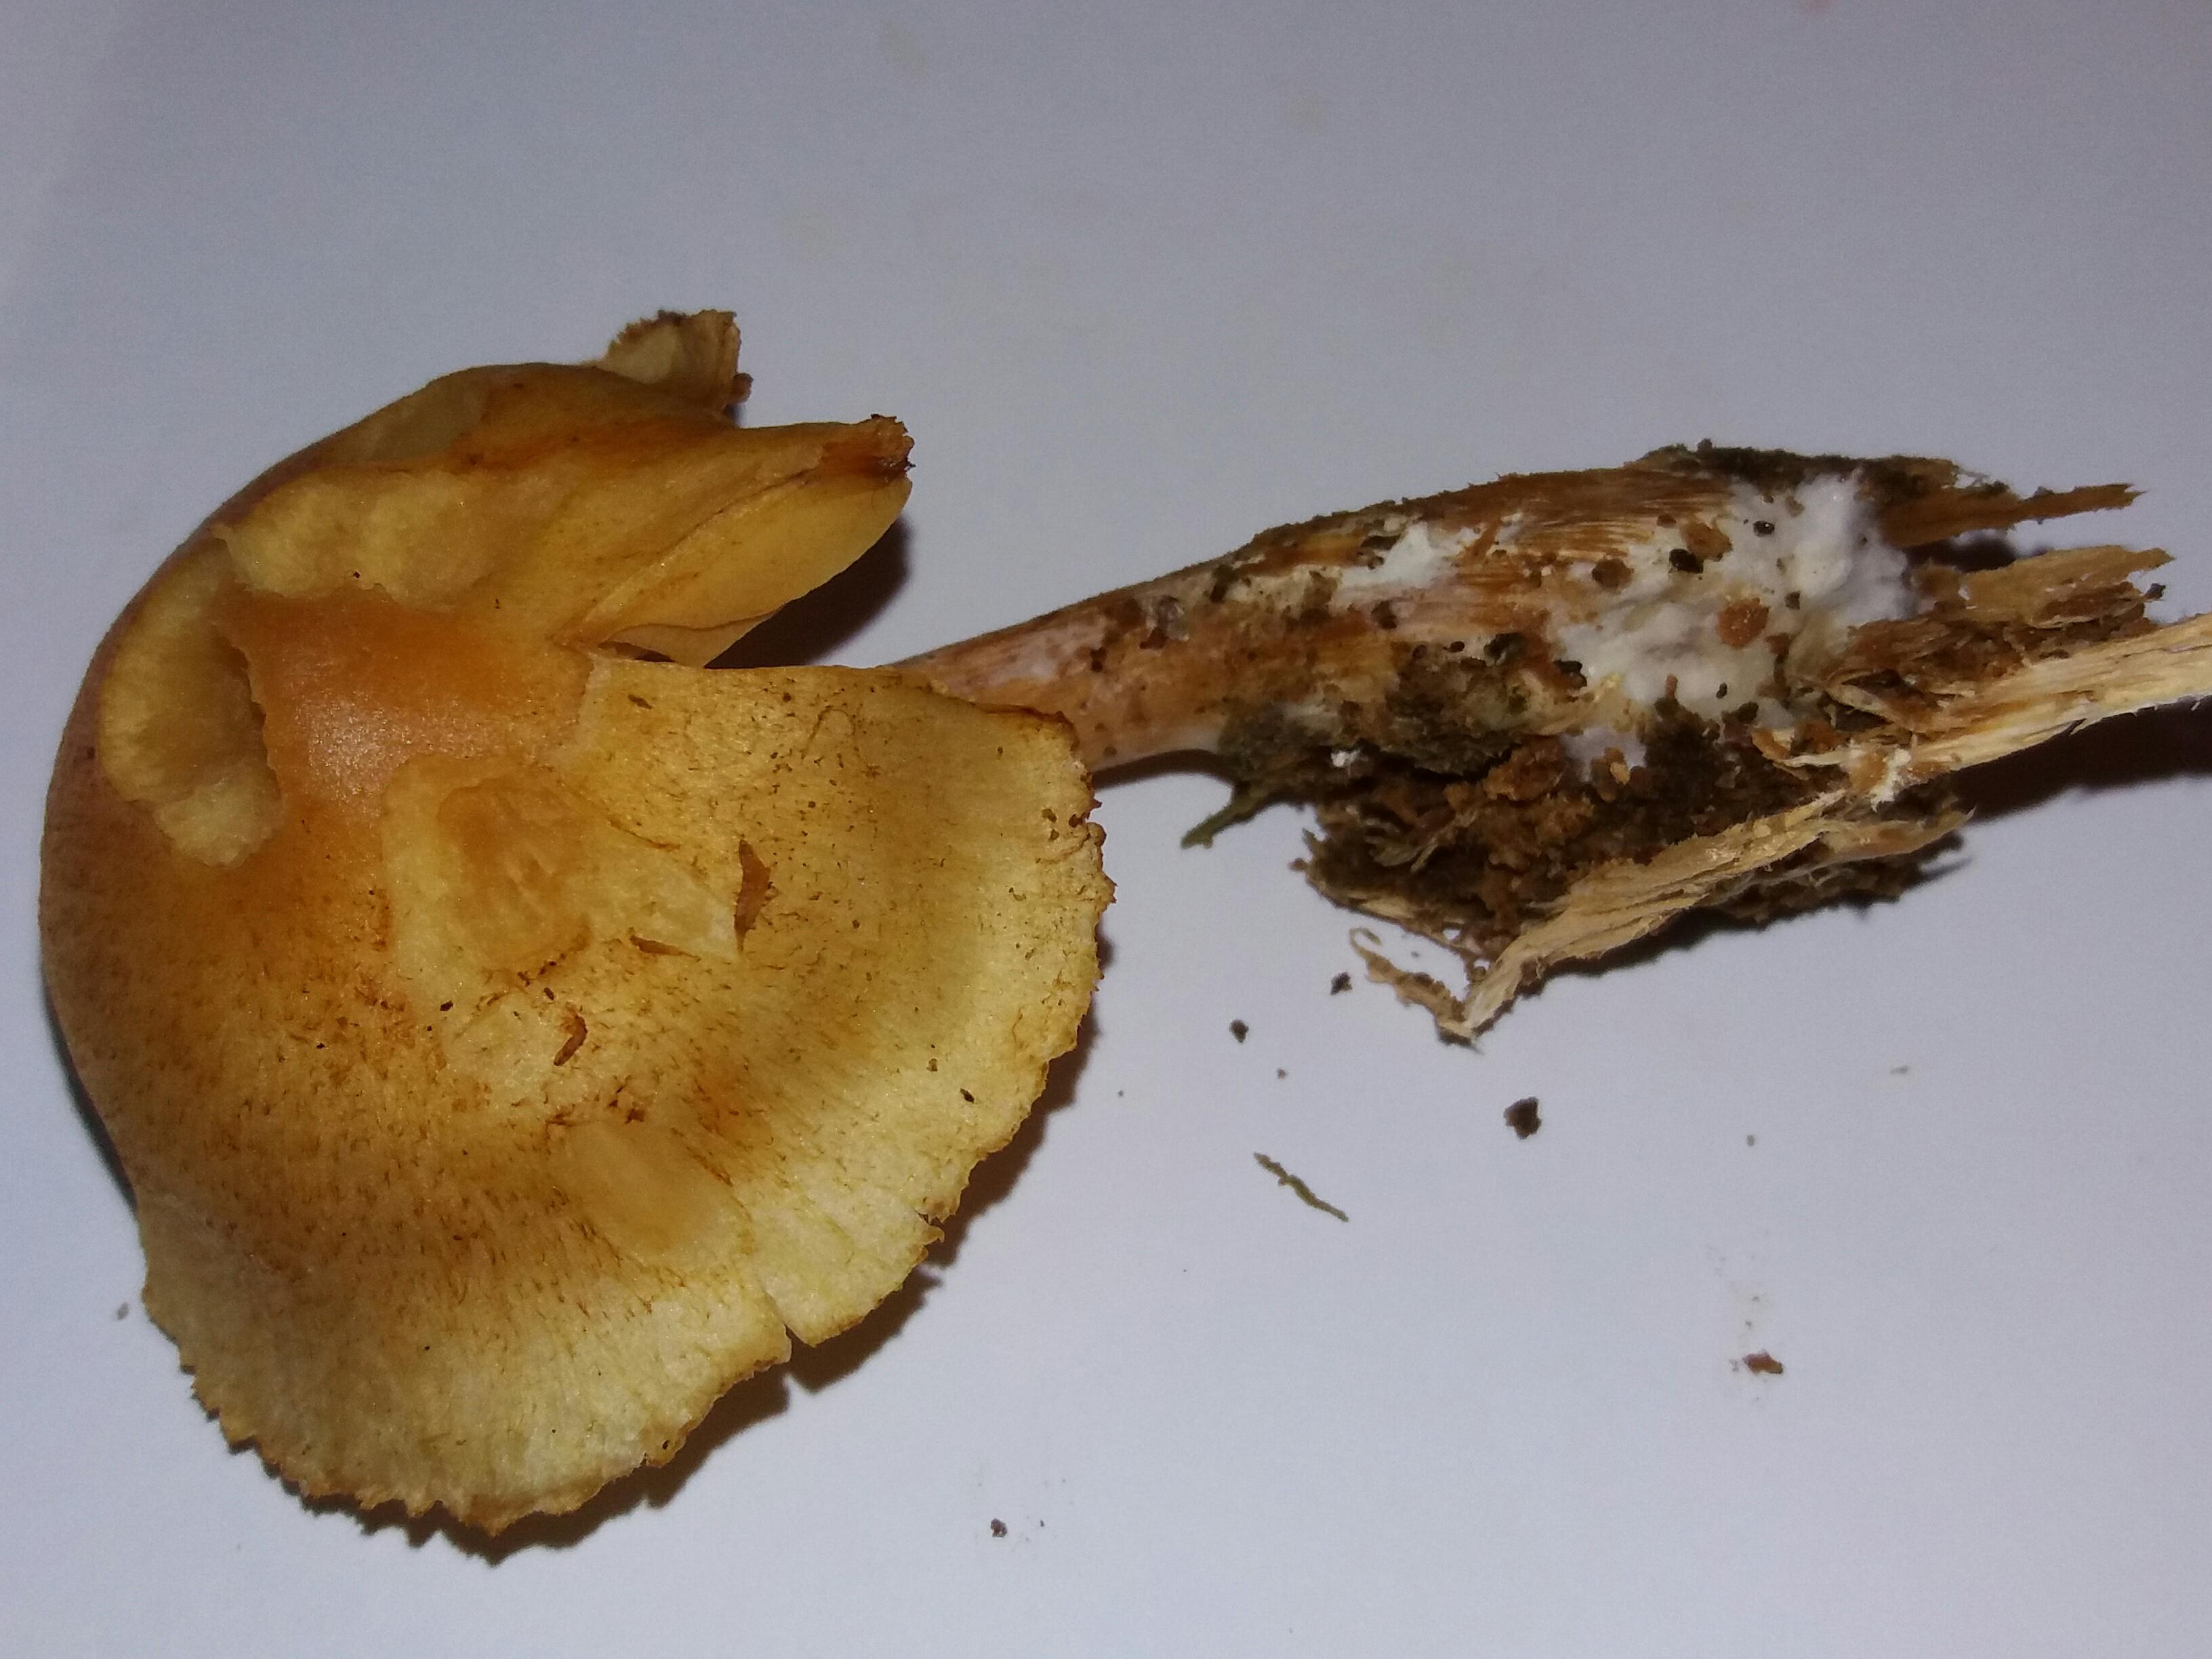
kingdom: Fungi
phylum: Basidiomycota
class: Agaricomycetes
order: Agaricales
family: Hymenogastraceae
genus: Gymnopilus
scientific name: Gymnopilus penetrans
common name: plettet flammehat
